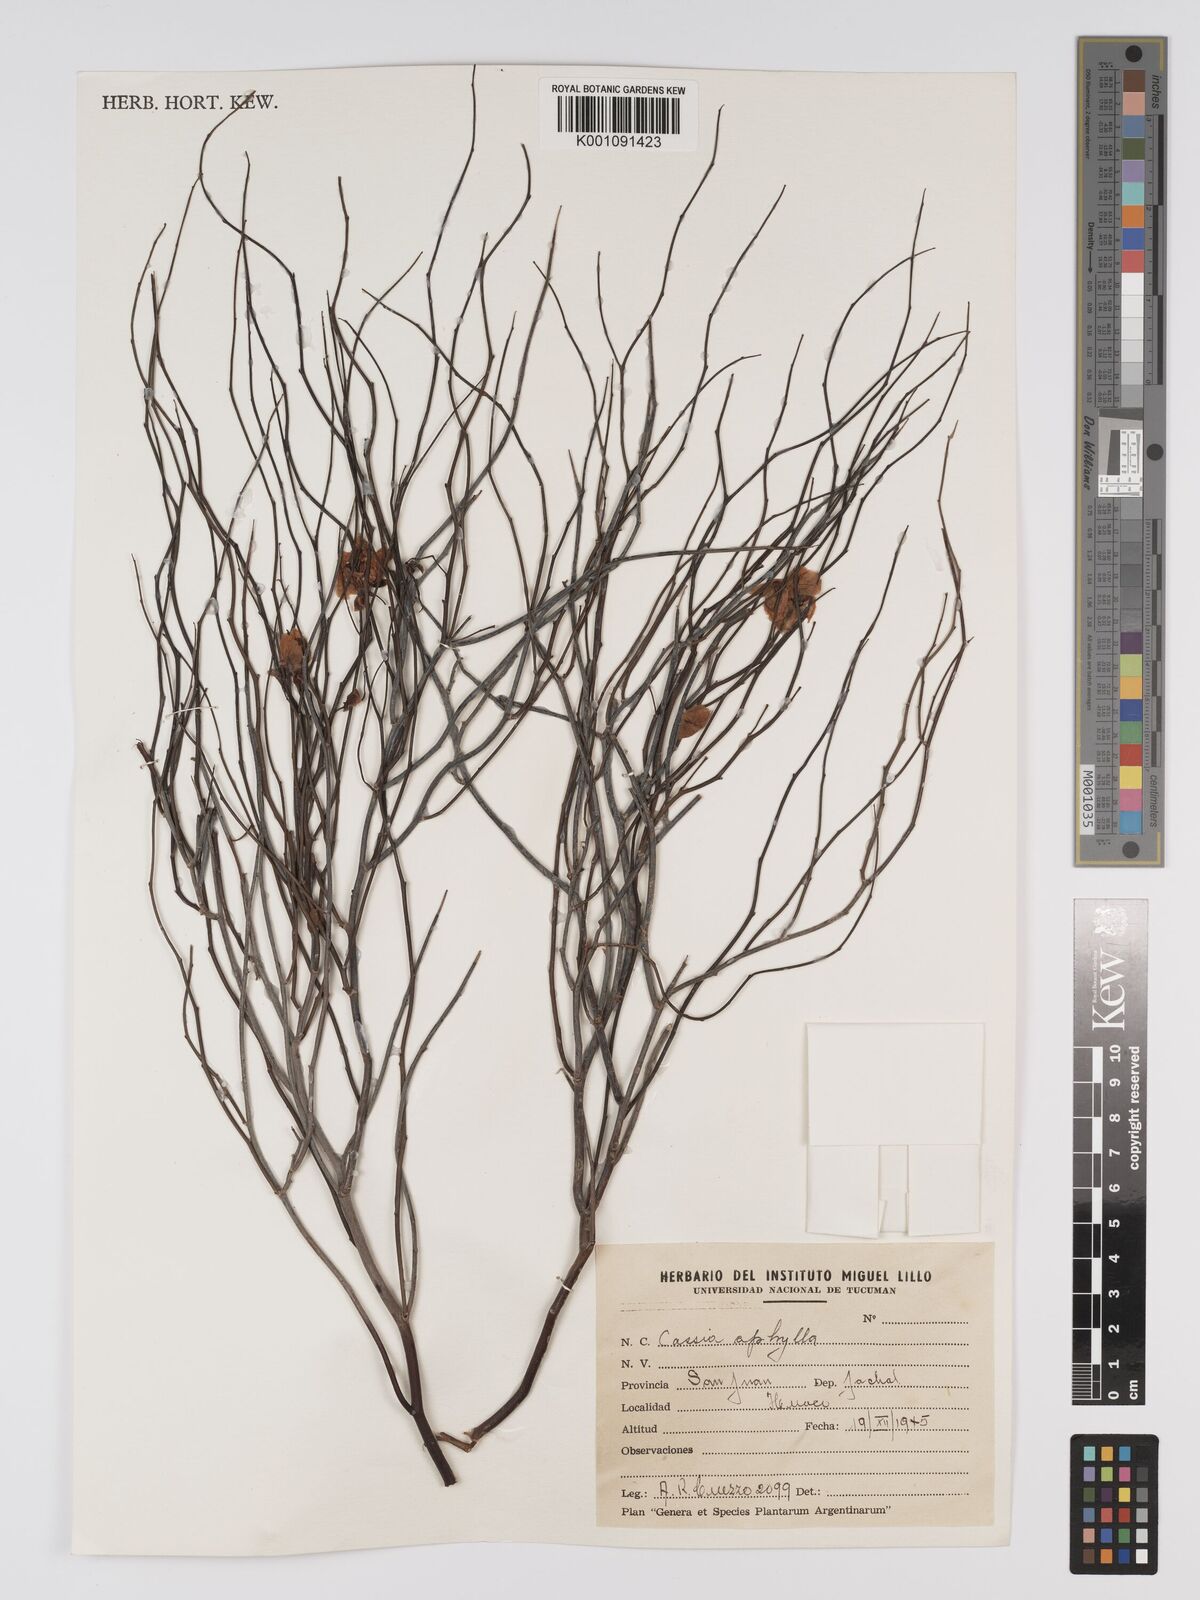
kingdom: Plantae
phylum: Tracheophyta
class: Magnoliopsida
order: Fabales
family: Fabaceae
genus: Senna
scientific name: Senna aphylla
